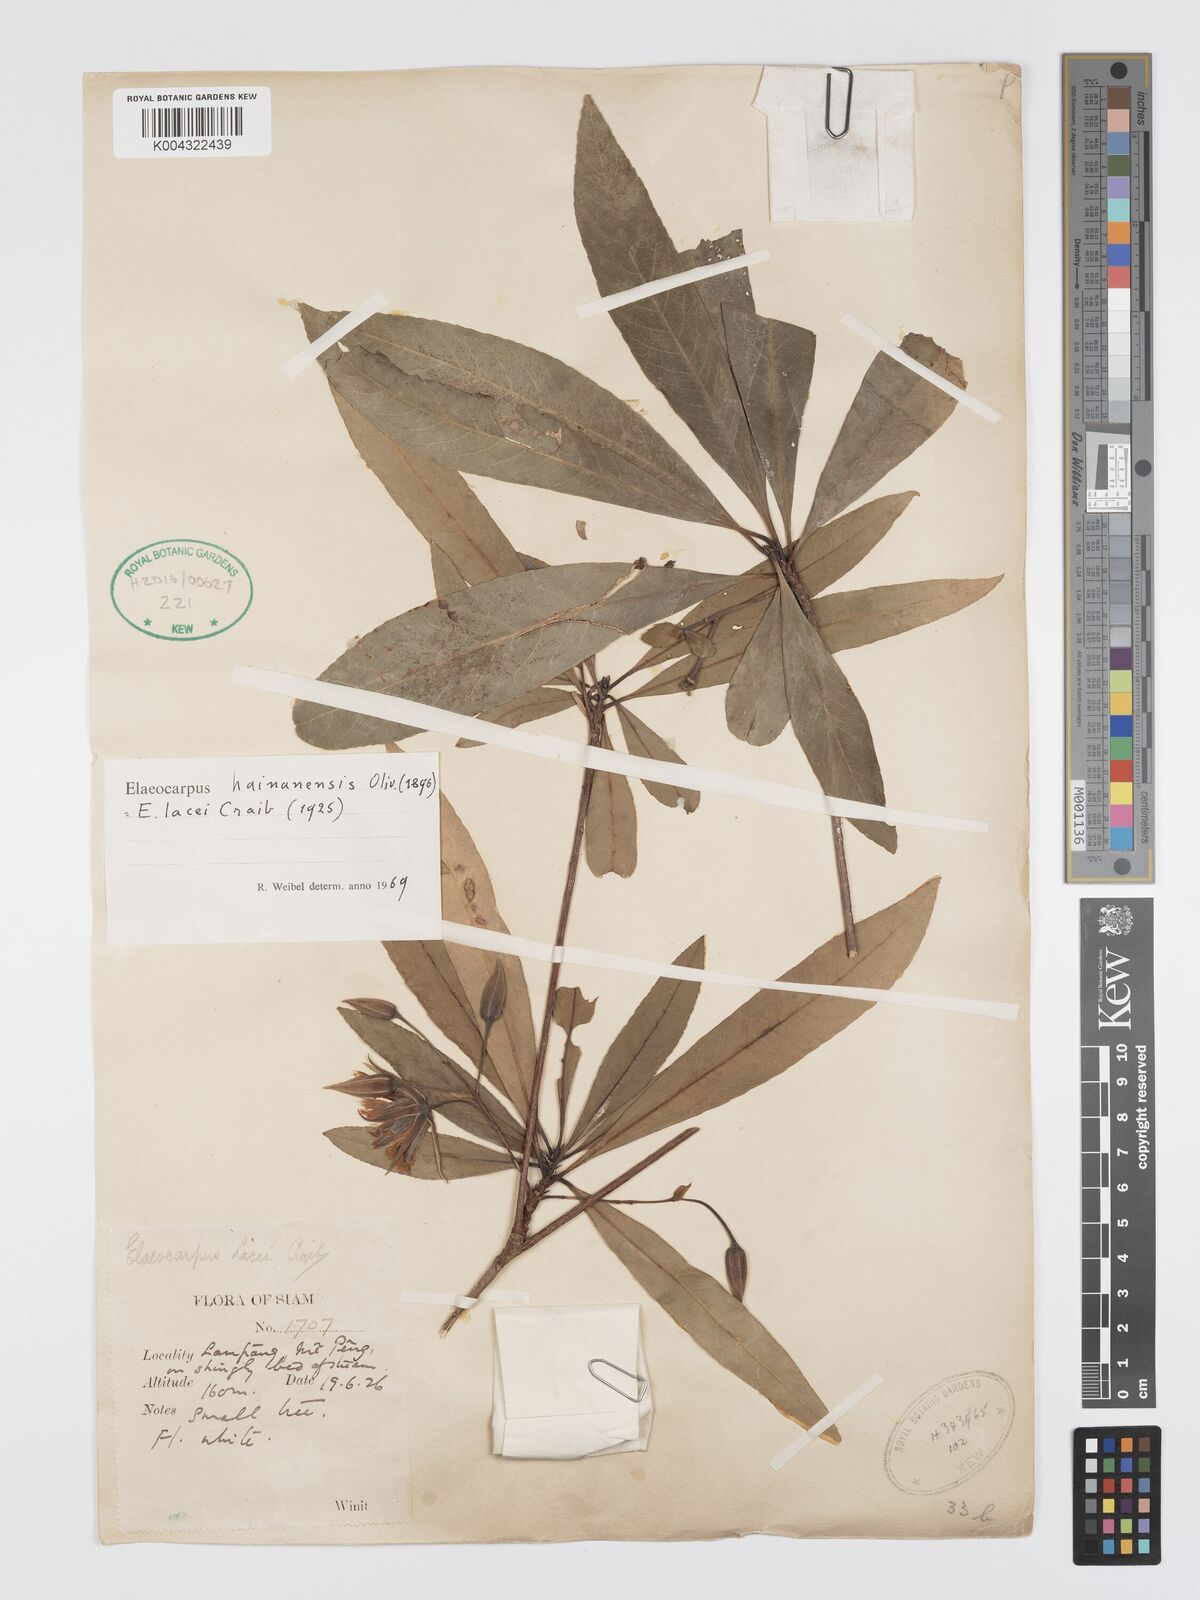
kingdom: Plantae
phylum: Tracheophyta
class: Magnoliopsida
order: Oxalidales
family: Elaeocarpaceae
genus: Elaeocarpus
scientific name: Elaeocarpus hainanensis
